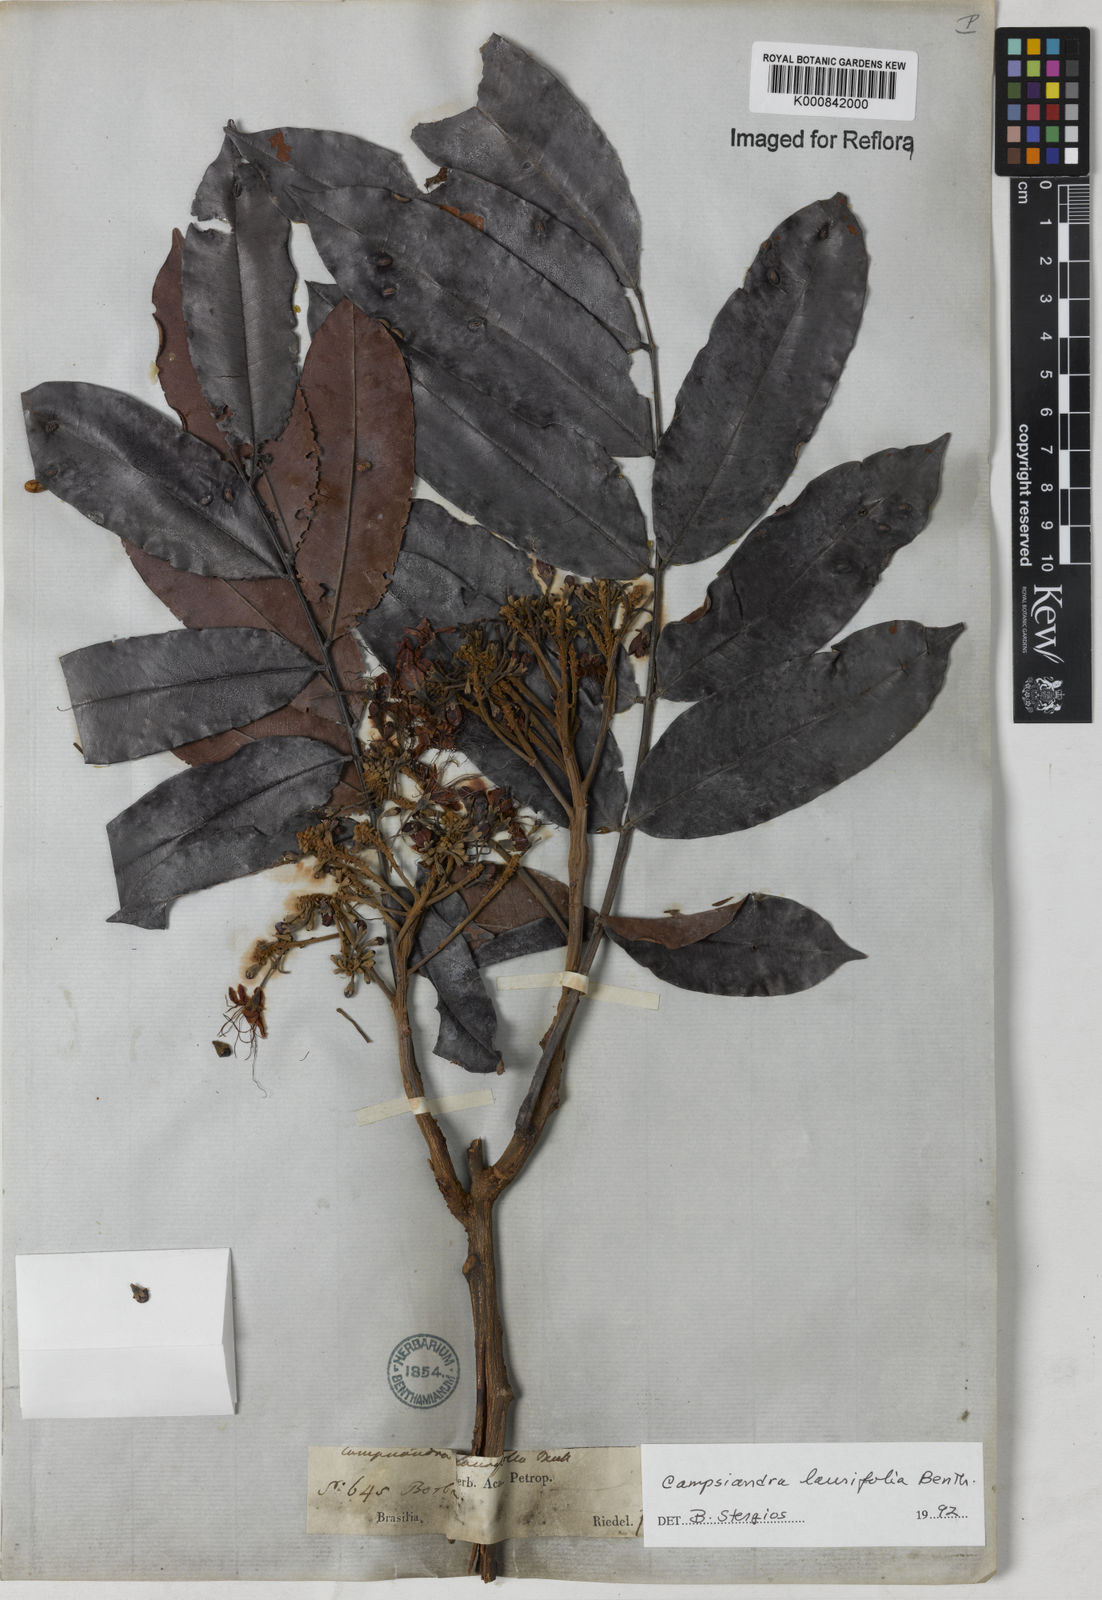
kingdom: Plantae
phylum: Tracheophyta
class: Magnoliopsida
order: Fabales
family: Fabaceae
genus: Campsiandra
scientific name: Campsiandra laurifolia
